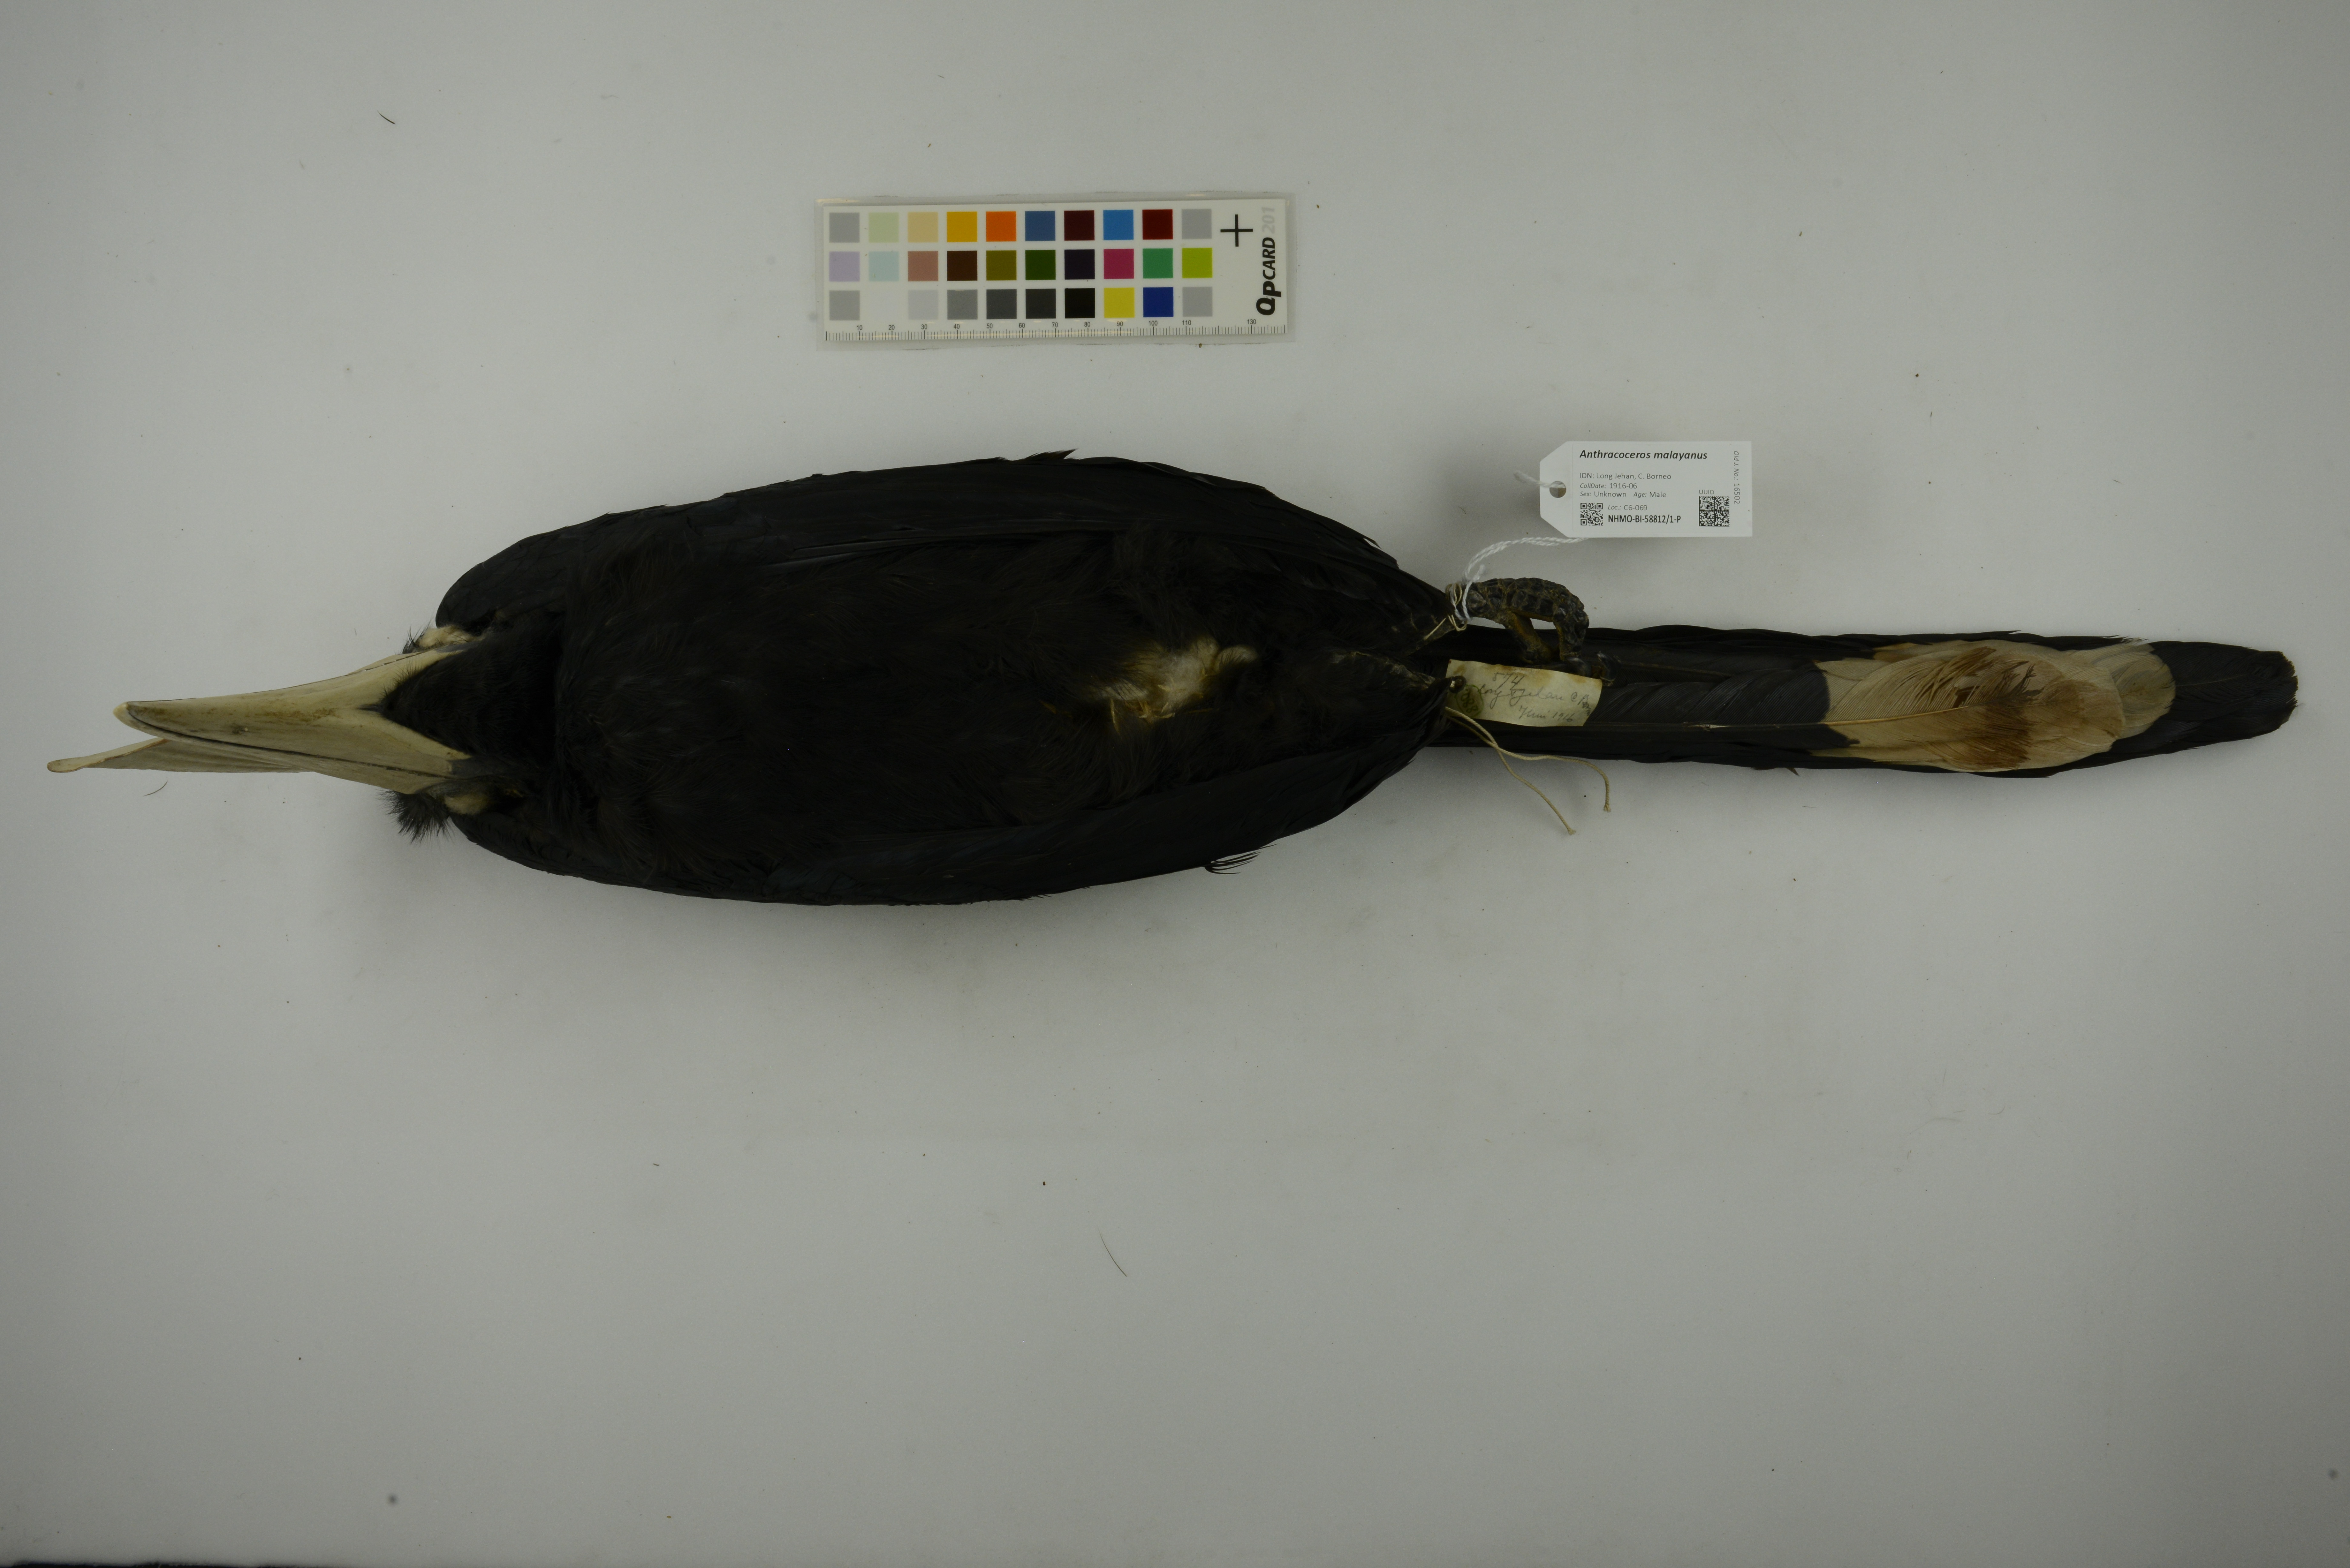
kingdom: Animalia
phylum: Chordata
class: Aves
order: Bucerotiformes
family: Bucerotidae
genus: Anthracoceros
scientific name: Anthracoceros malayanus
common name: Black hornbill
